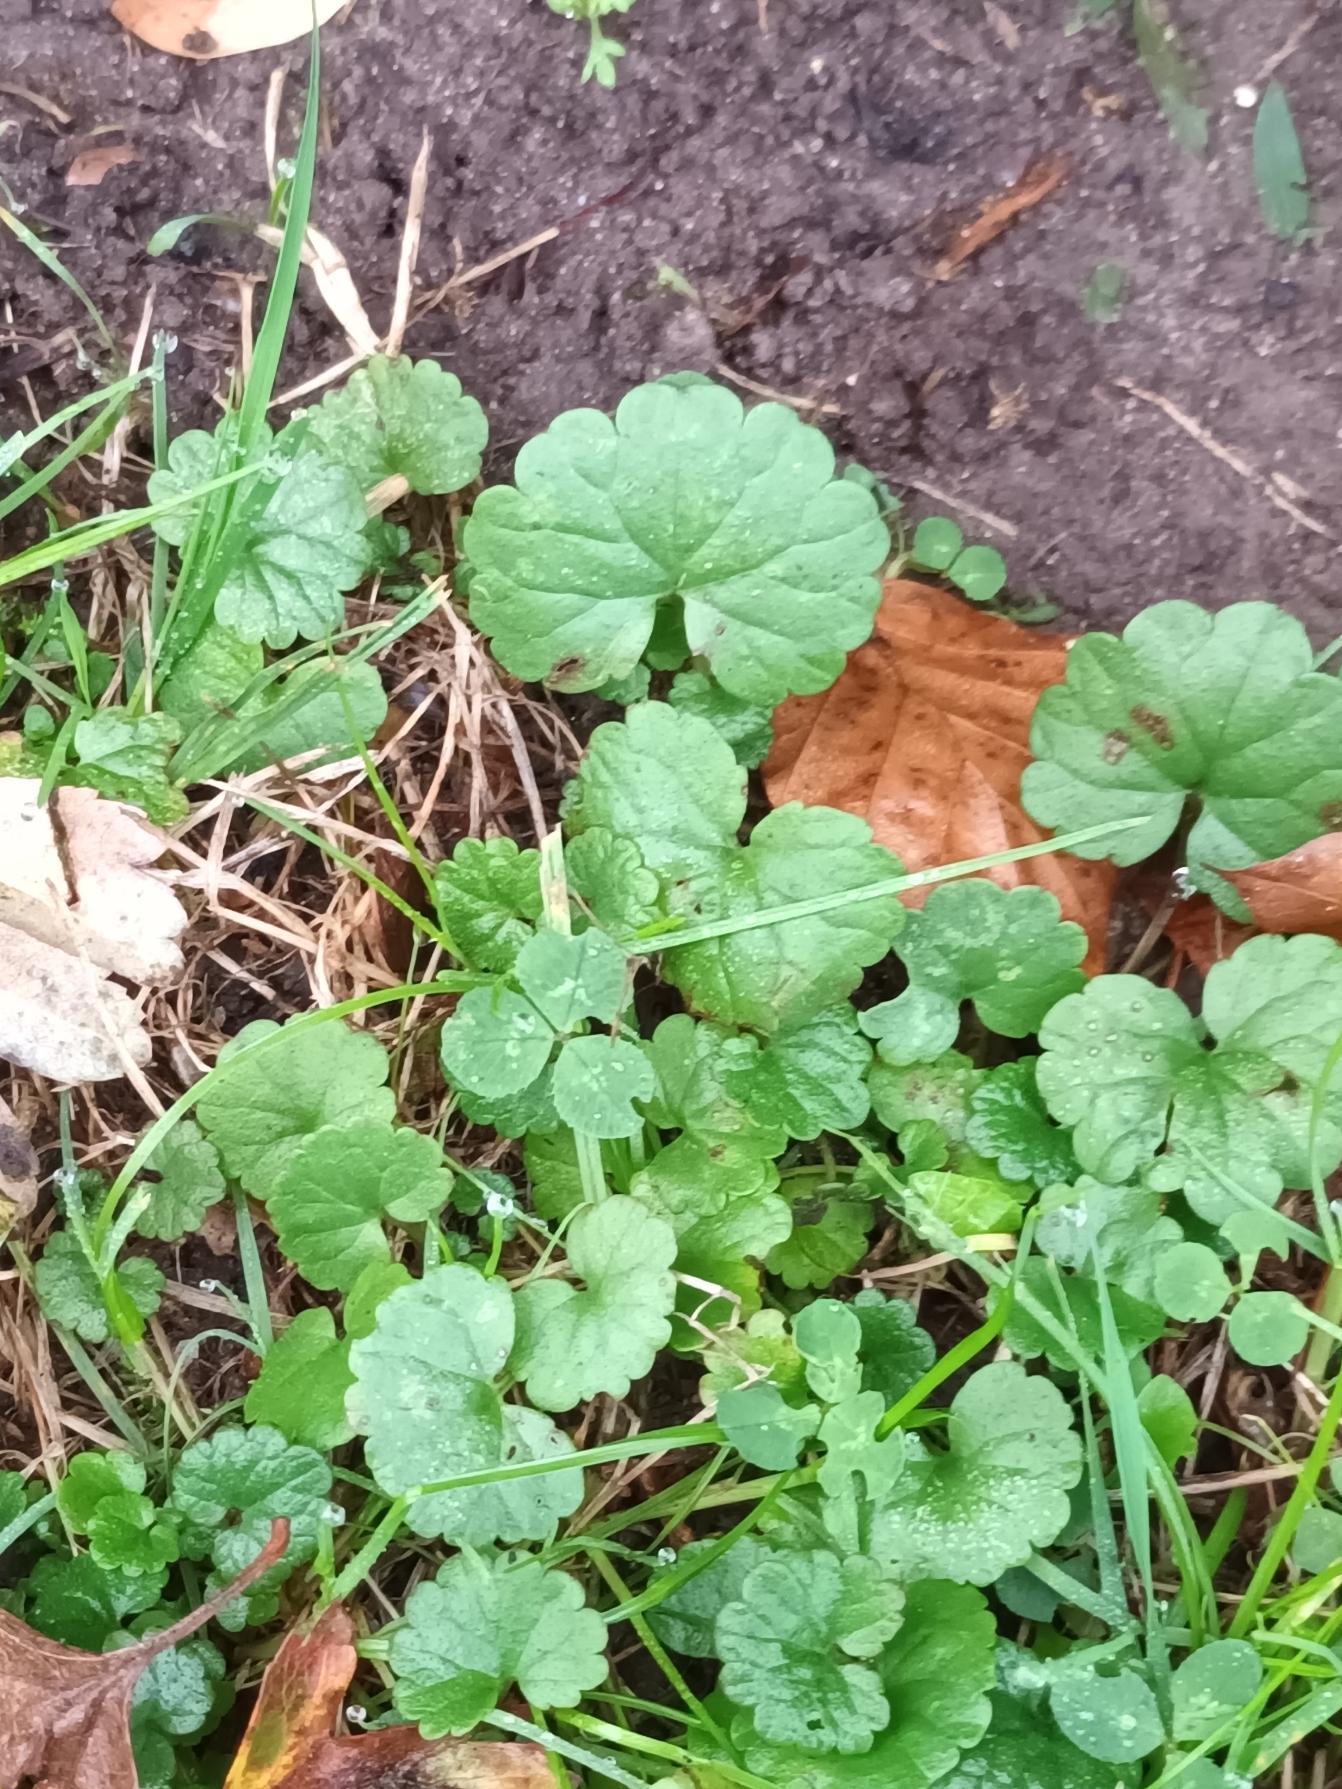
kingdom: Plantae
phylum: Tracheophyta
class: Magnoliopsida
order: Lamiales
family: Lamiaceae
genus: Glechoma
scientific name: Glechoma hederacea
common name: Korsknap
